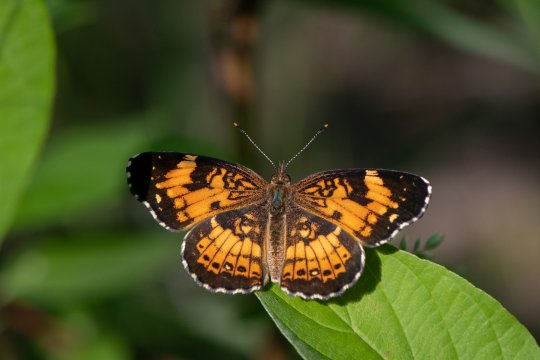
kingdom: Animalia
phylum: Arthropoda
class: Insecta
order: Lepidoptera
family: Nymphalidae
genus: Chlosyne
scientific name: Chlosyne nycteis
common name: Silvery Checkerspot
